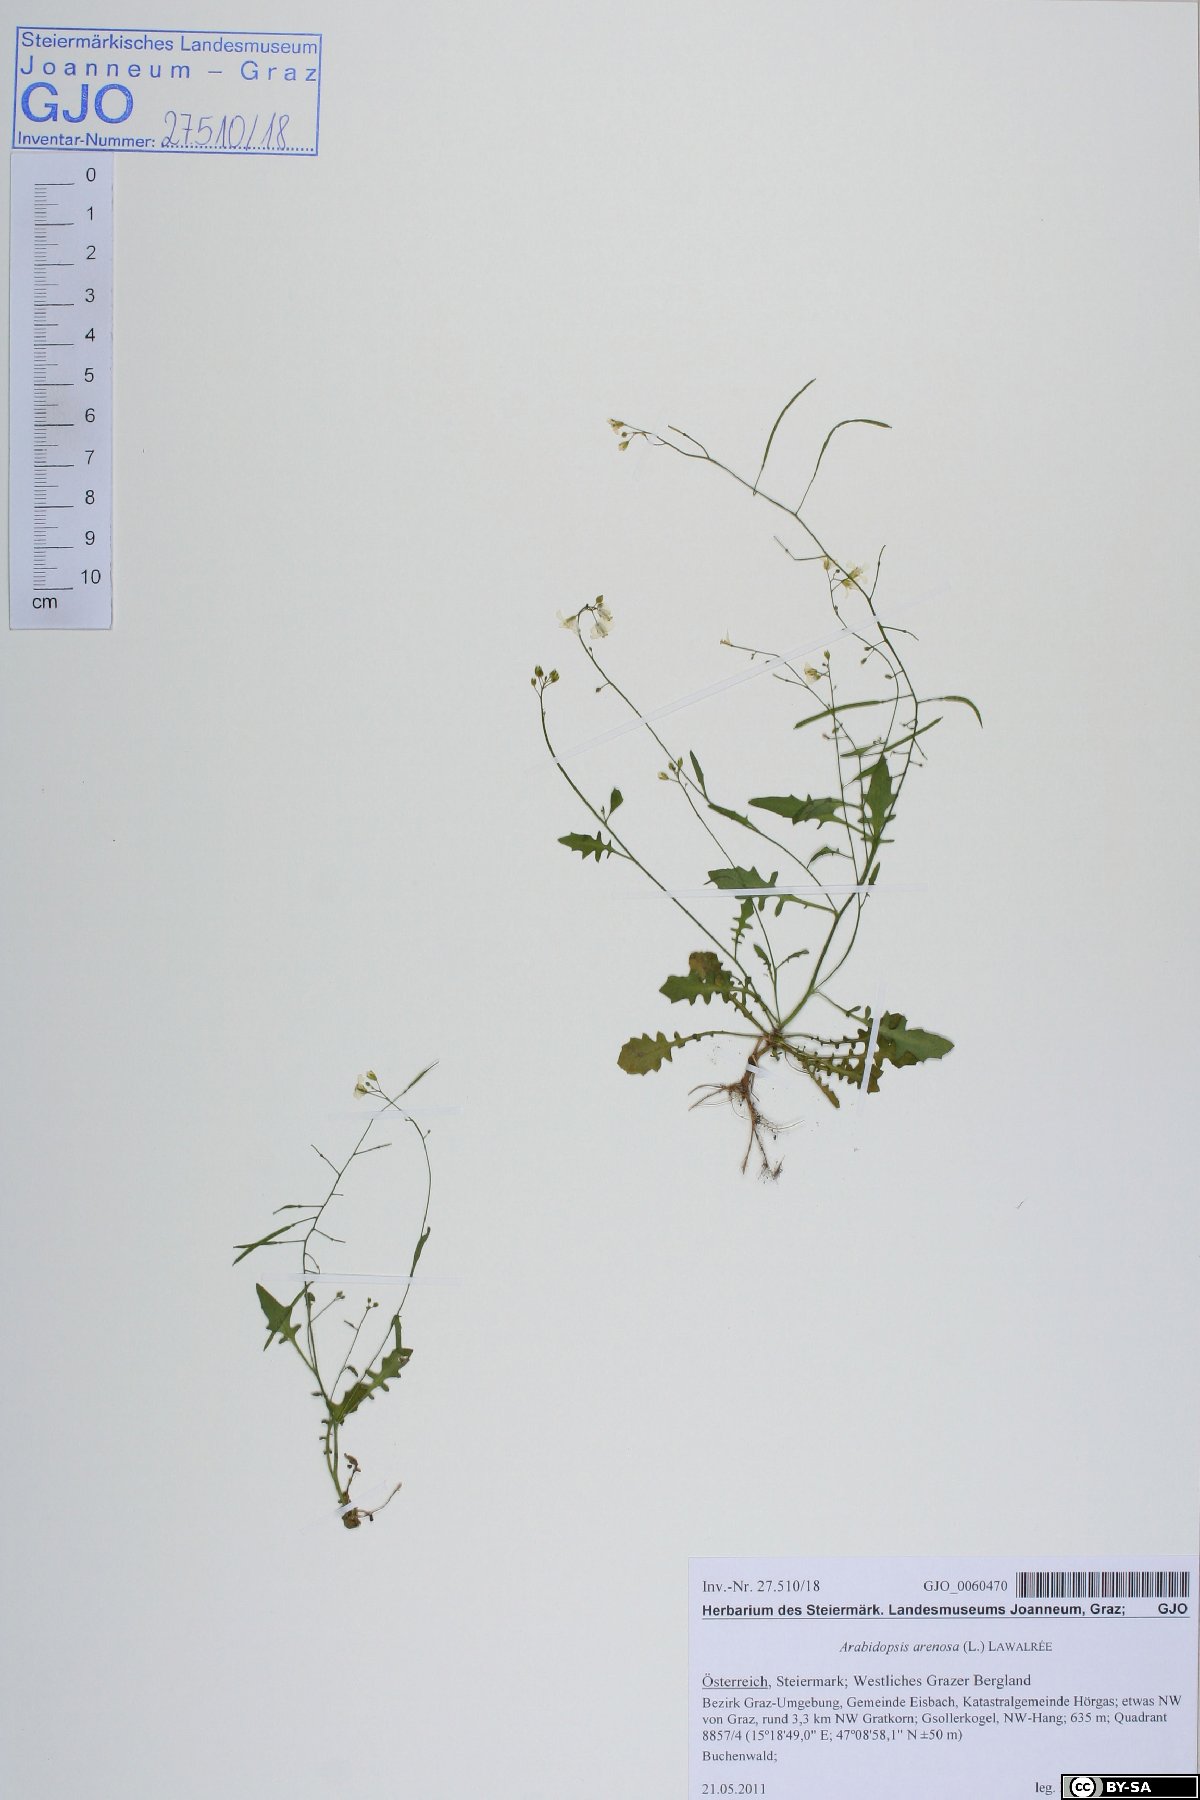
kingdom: Plantae
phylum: Tracheophyta
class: Magnoliopsida
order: Brassicales
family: Brassicaceae
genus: Arabidopsis
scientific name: Arabidopsis arenosa
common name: Sand rock-cress
